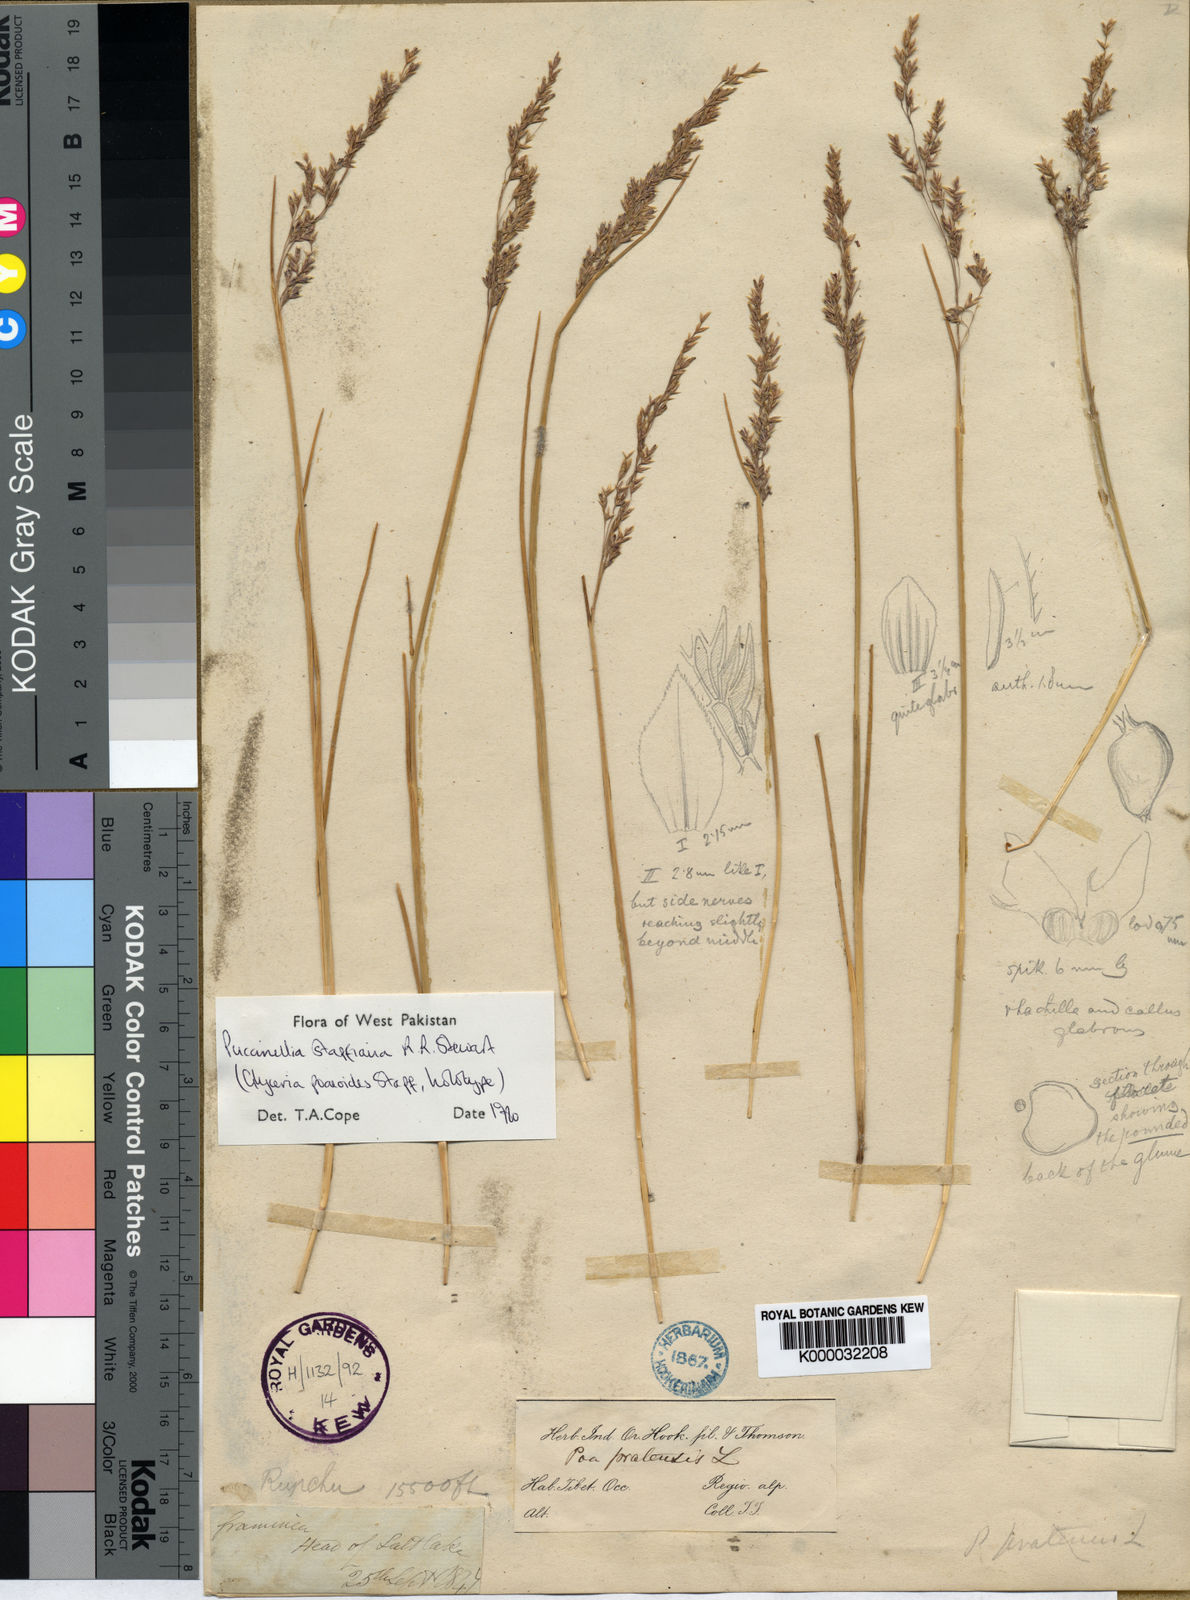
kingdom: Plantae
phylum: Tracheophyta
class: Liliopsida
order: Poales
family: Poaceae
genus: Puccinellia
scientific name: Puccinellia stapfiana
